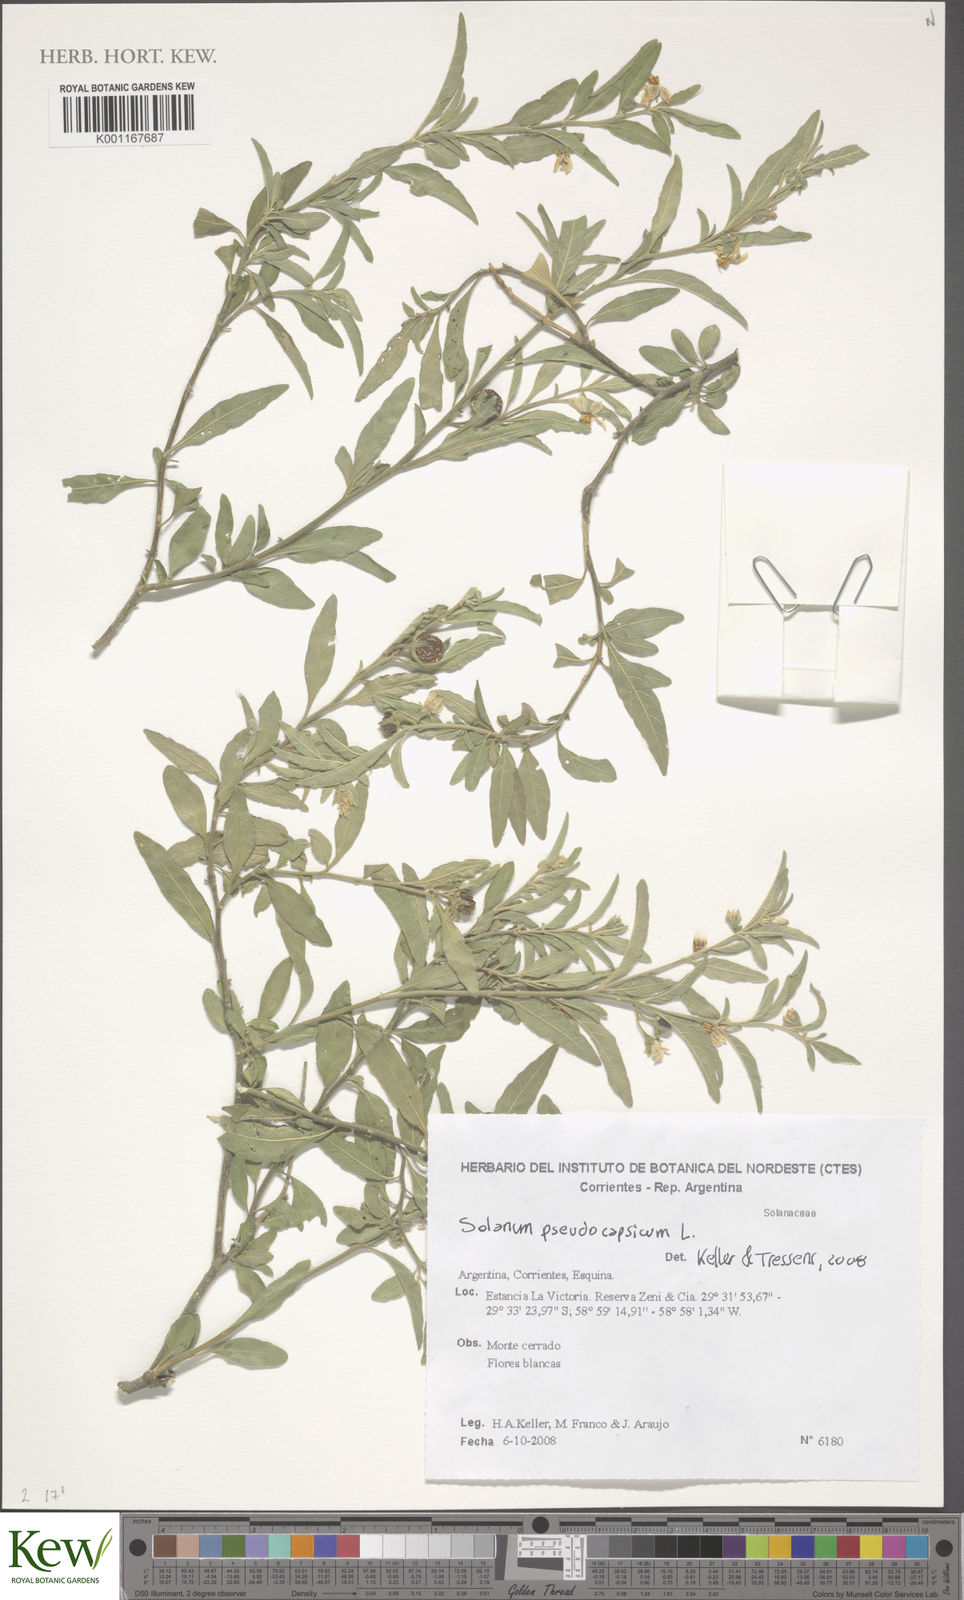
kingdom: Plantae
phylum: Tracheophyta
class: Magnoliopsida
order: Solanales
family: Solanaceae
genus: Solanum
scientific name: Solanum pseudocapsicum
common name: Jerusalem cherry
